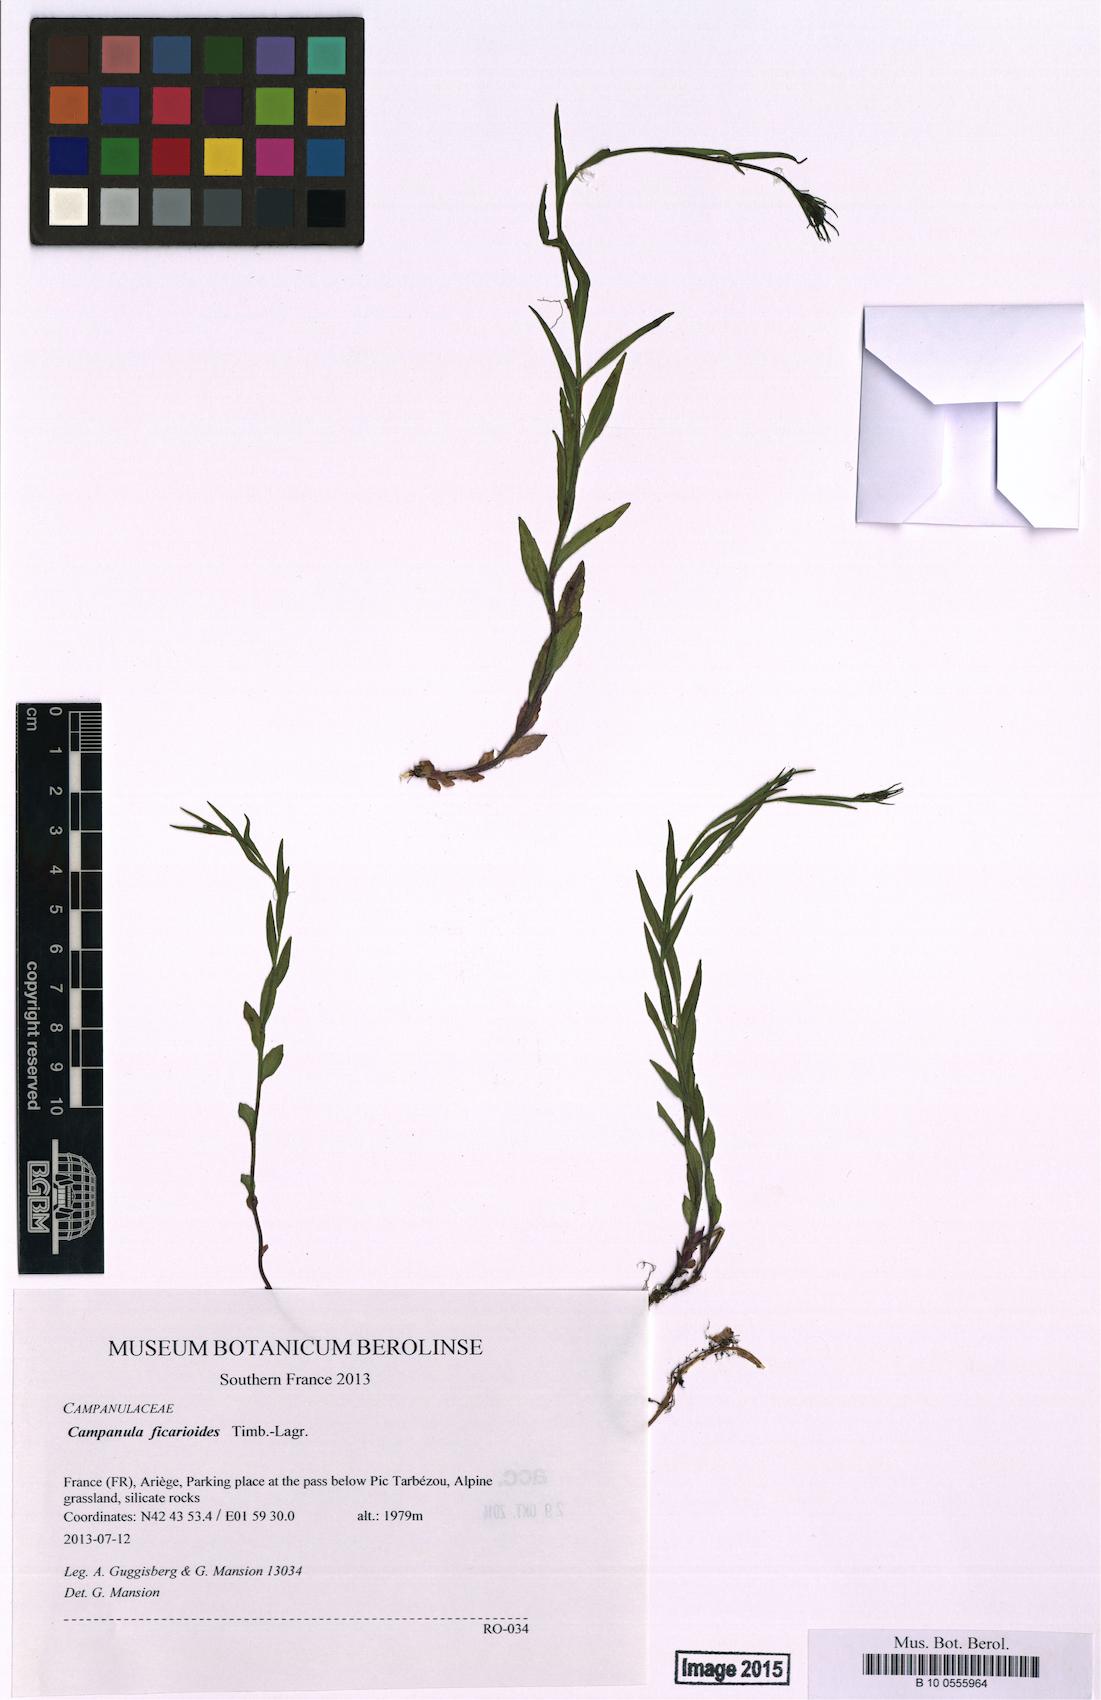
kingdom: Plantae
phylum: Tracheophyta
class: Magnoliopsida
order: Asterales
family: Campanulaceae
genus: Campanula
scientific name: Campanula ficarioides
